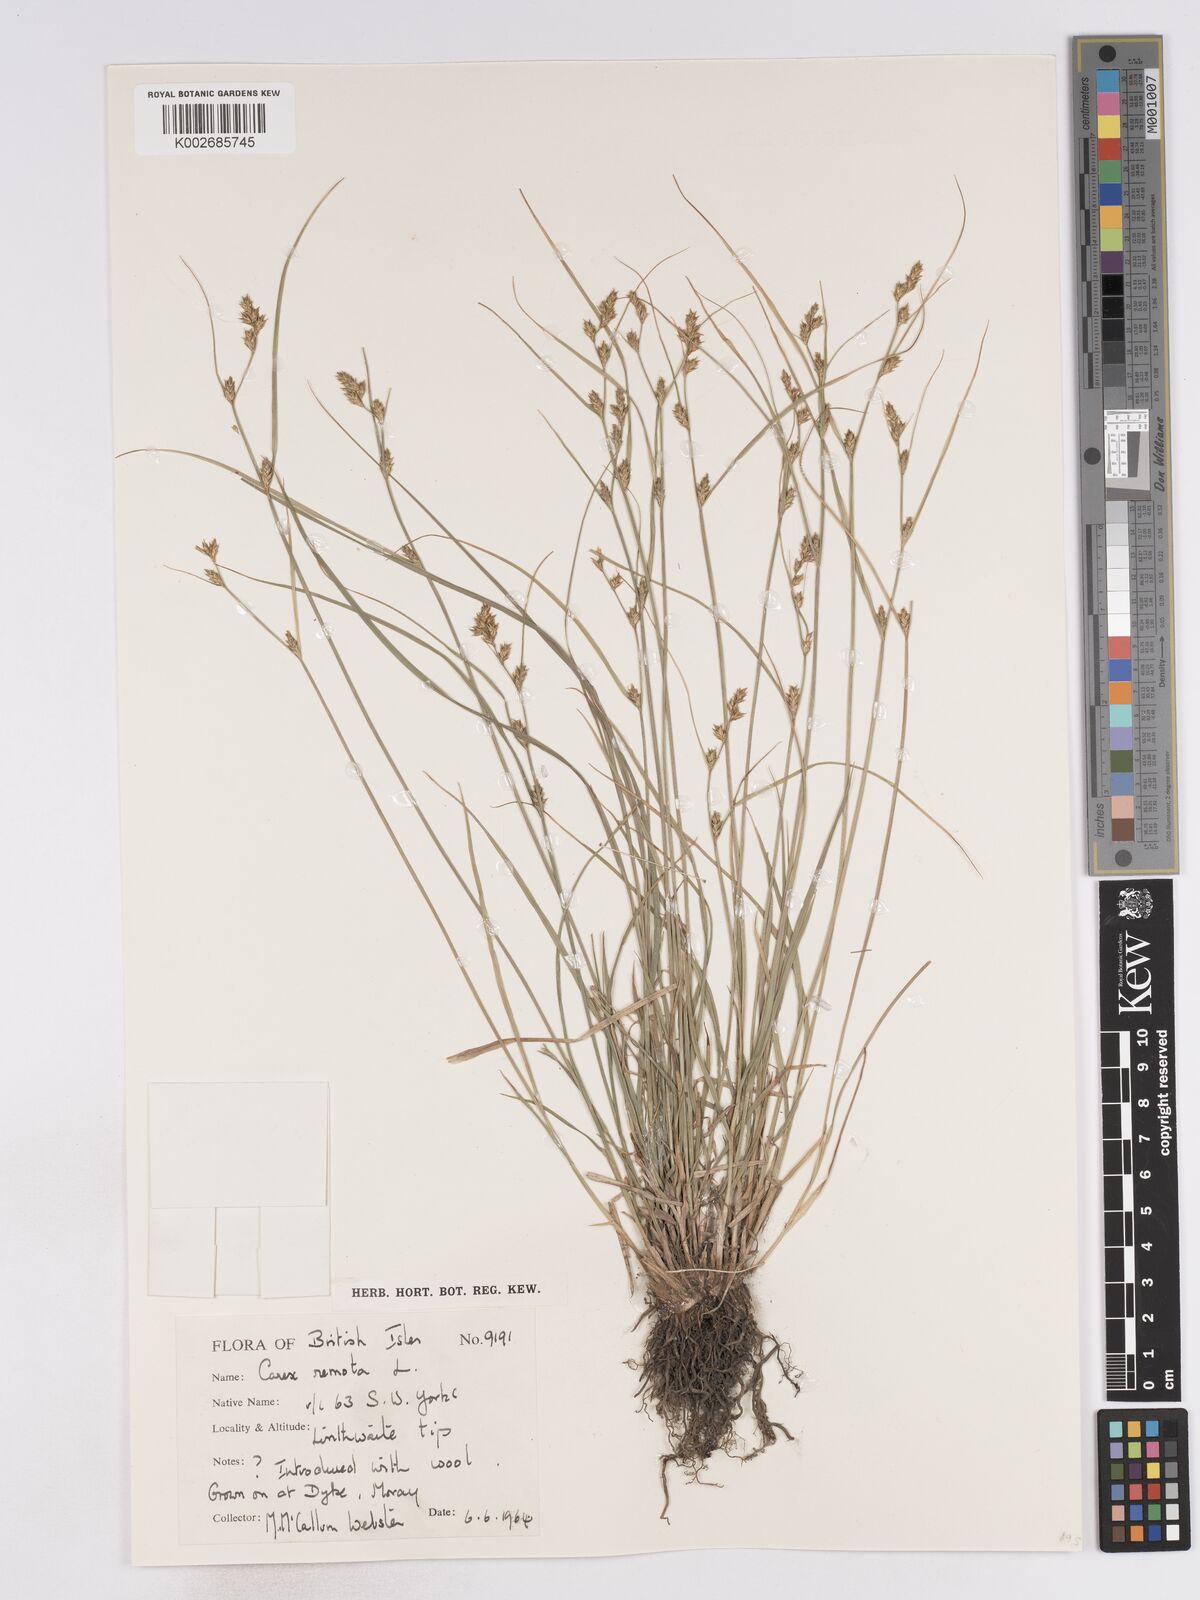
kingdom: Plantae
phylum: Tracheophyta
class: Liliopsida
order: Poales
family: Cyperaceae
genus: Carex
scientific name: Carex remota
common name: Remote sedge
